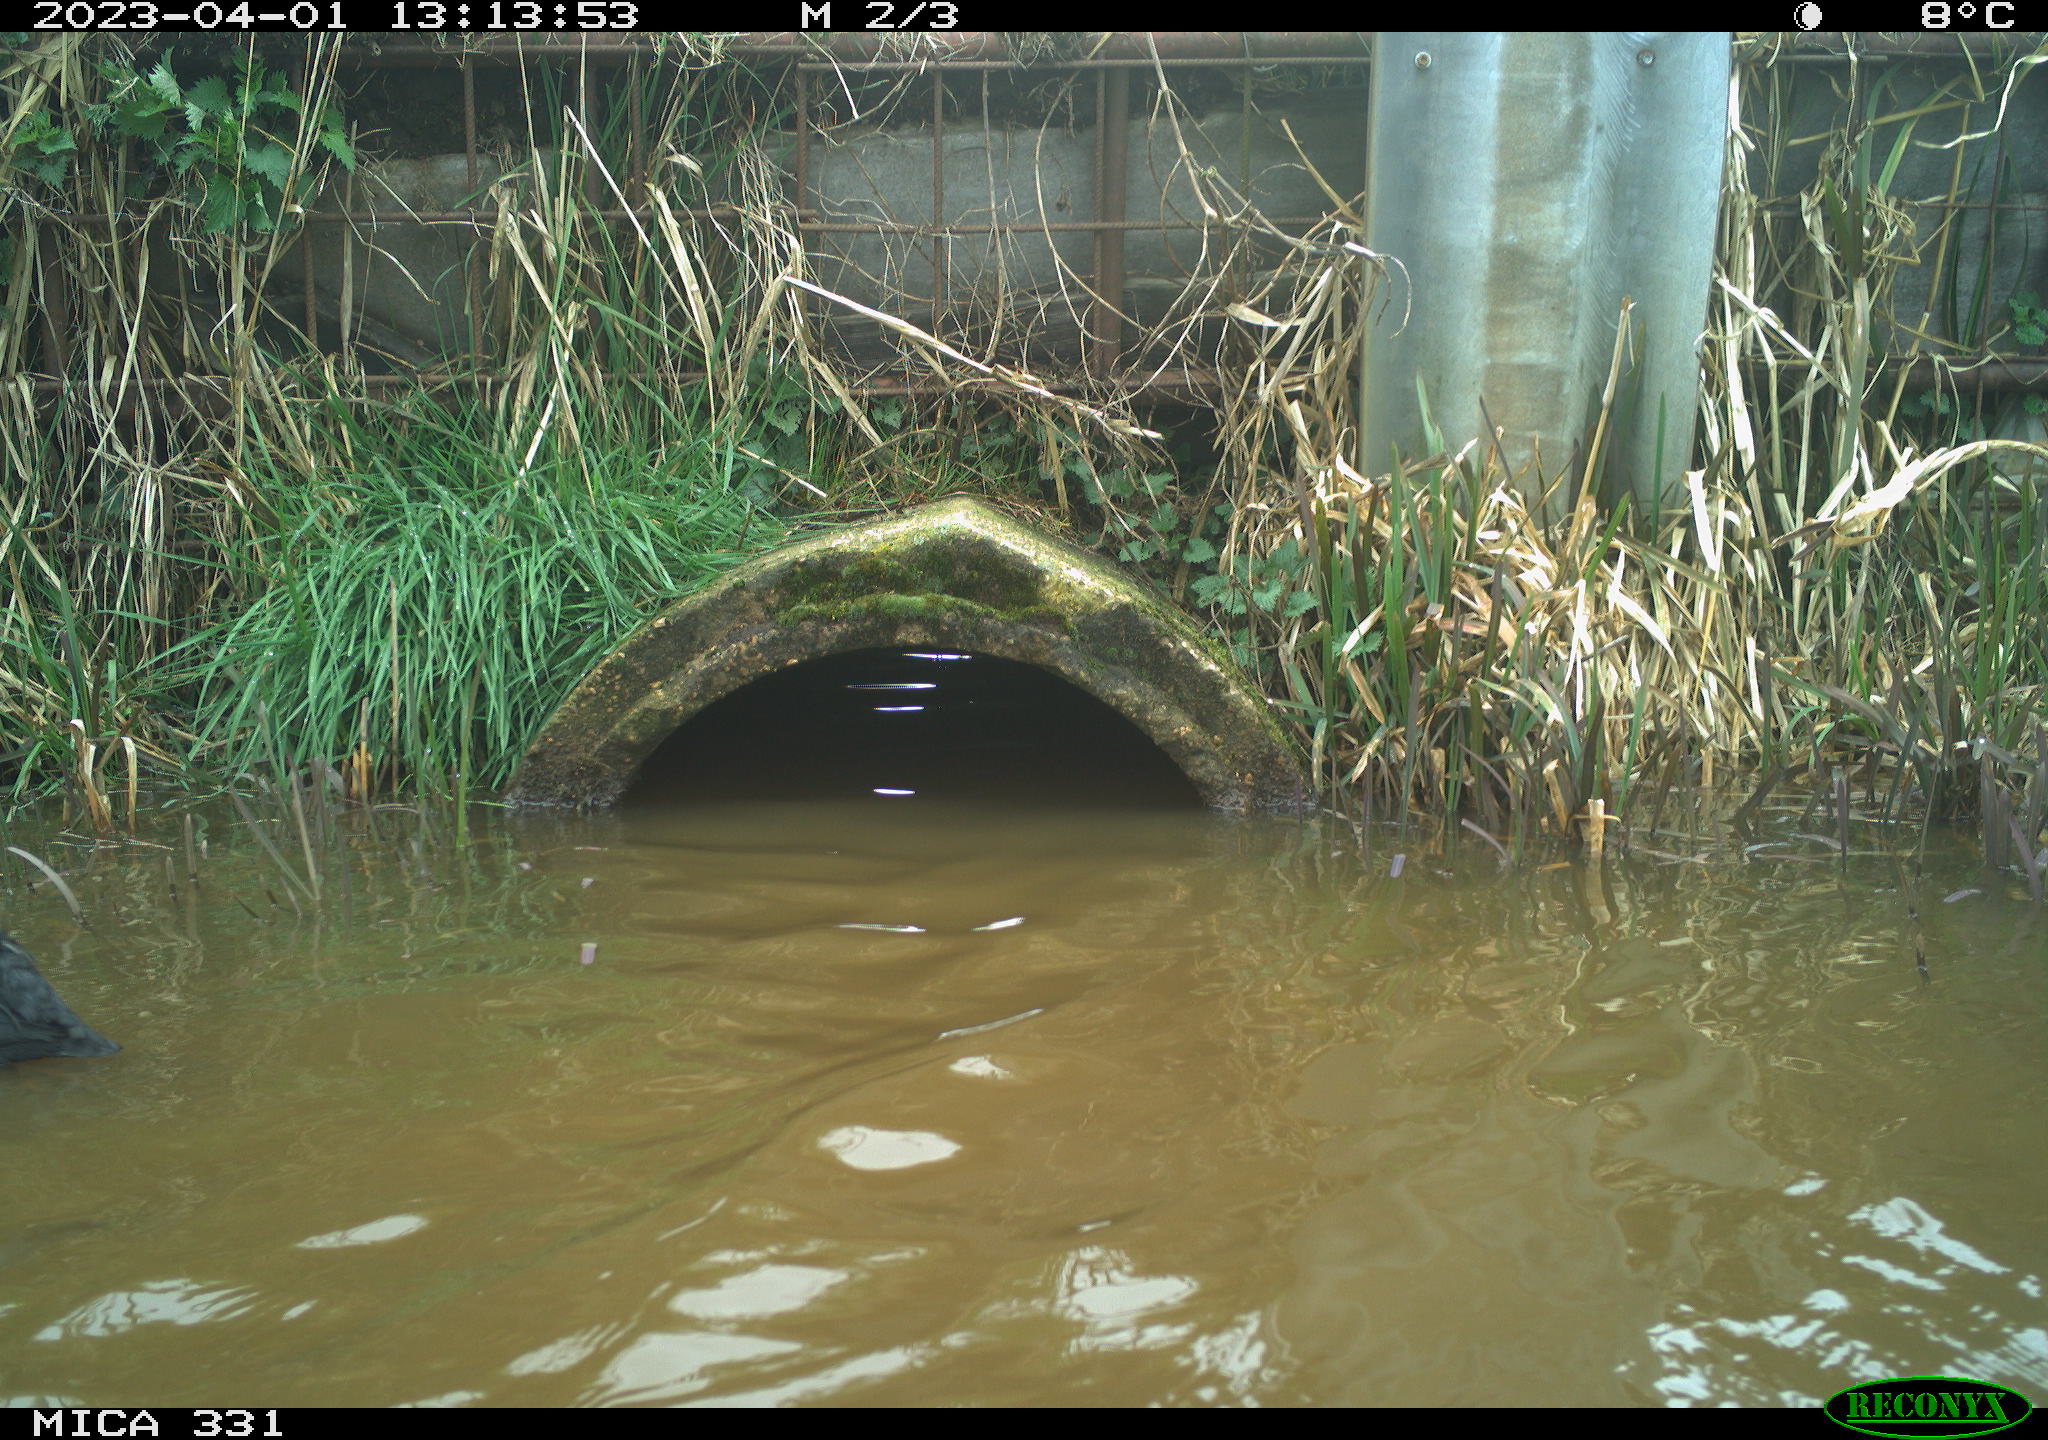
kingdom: Animalia
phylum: Chordata
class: Aves
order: Gruiformes
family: Rallidae
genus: Fulica
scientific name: Fulica atra
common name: Eurasian coot
